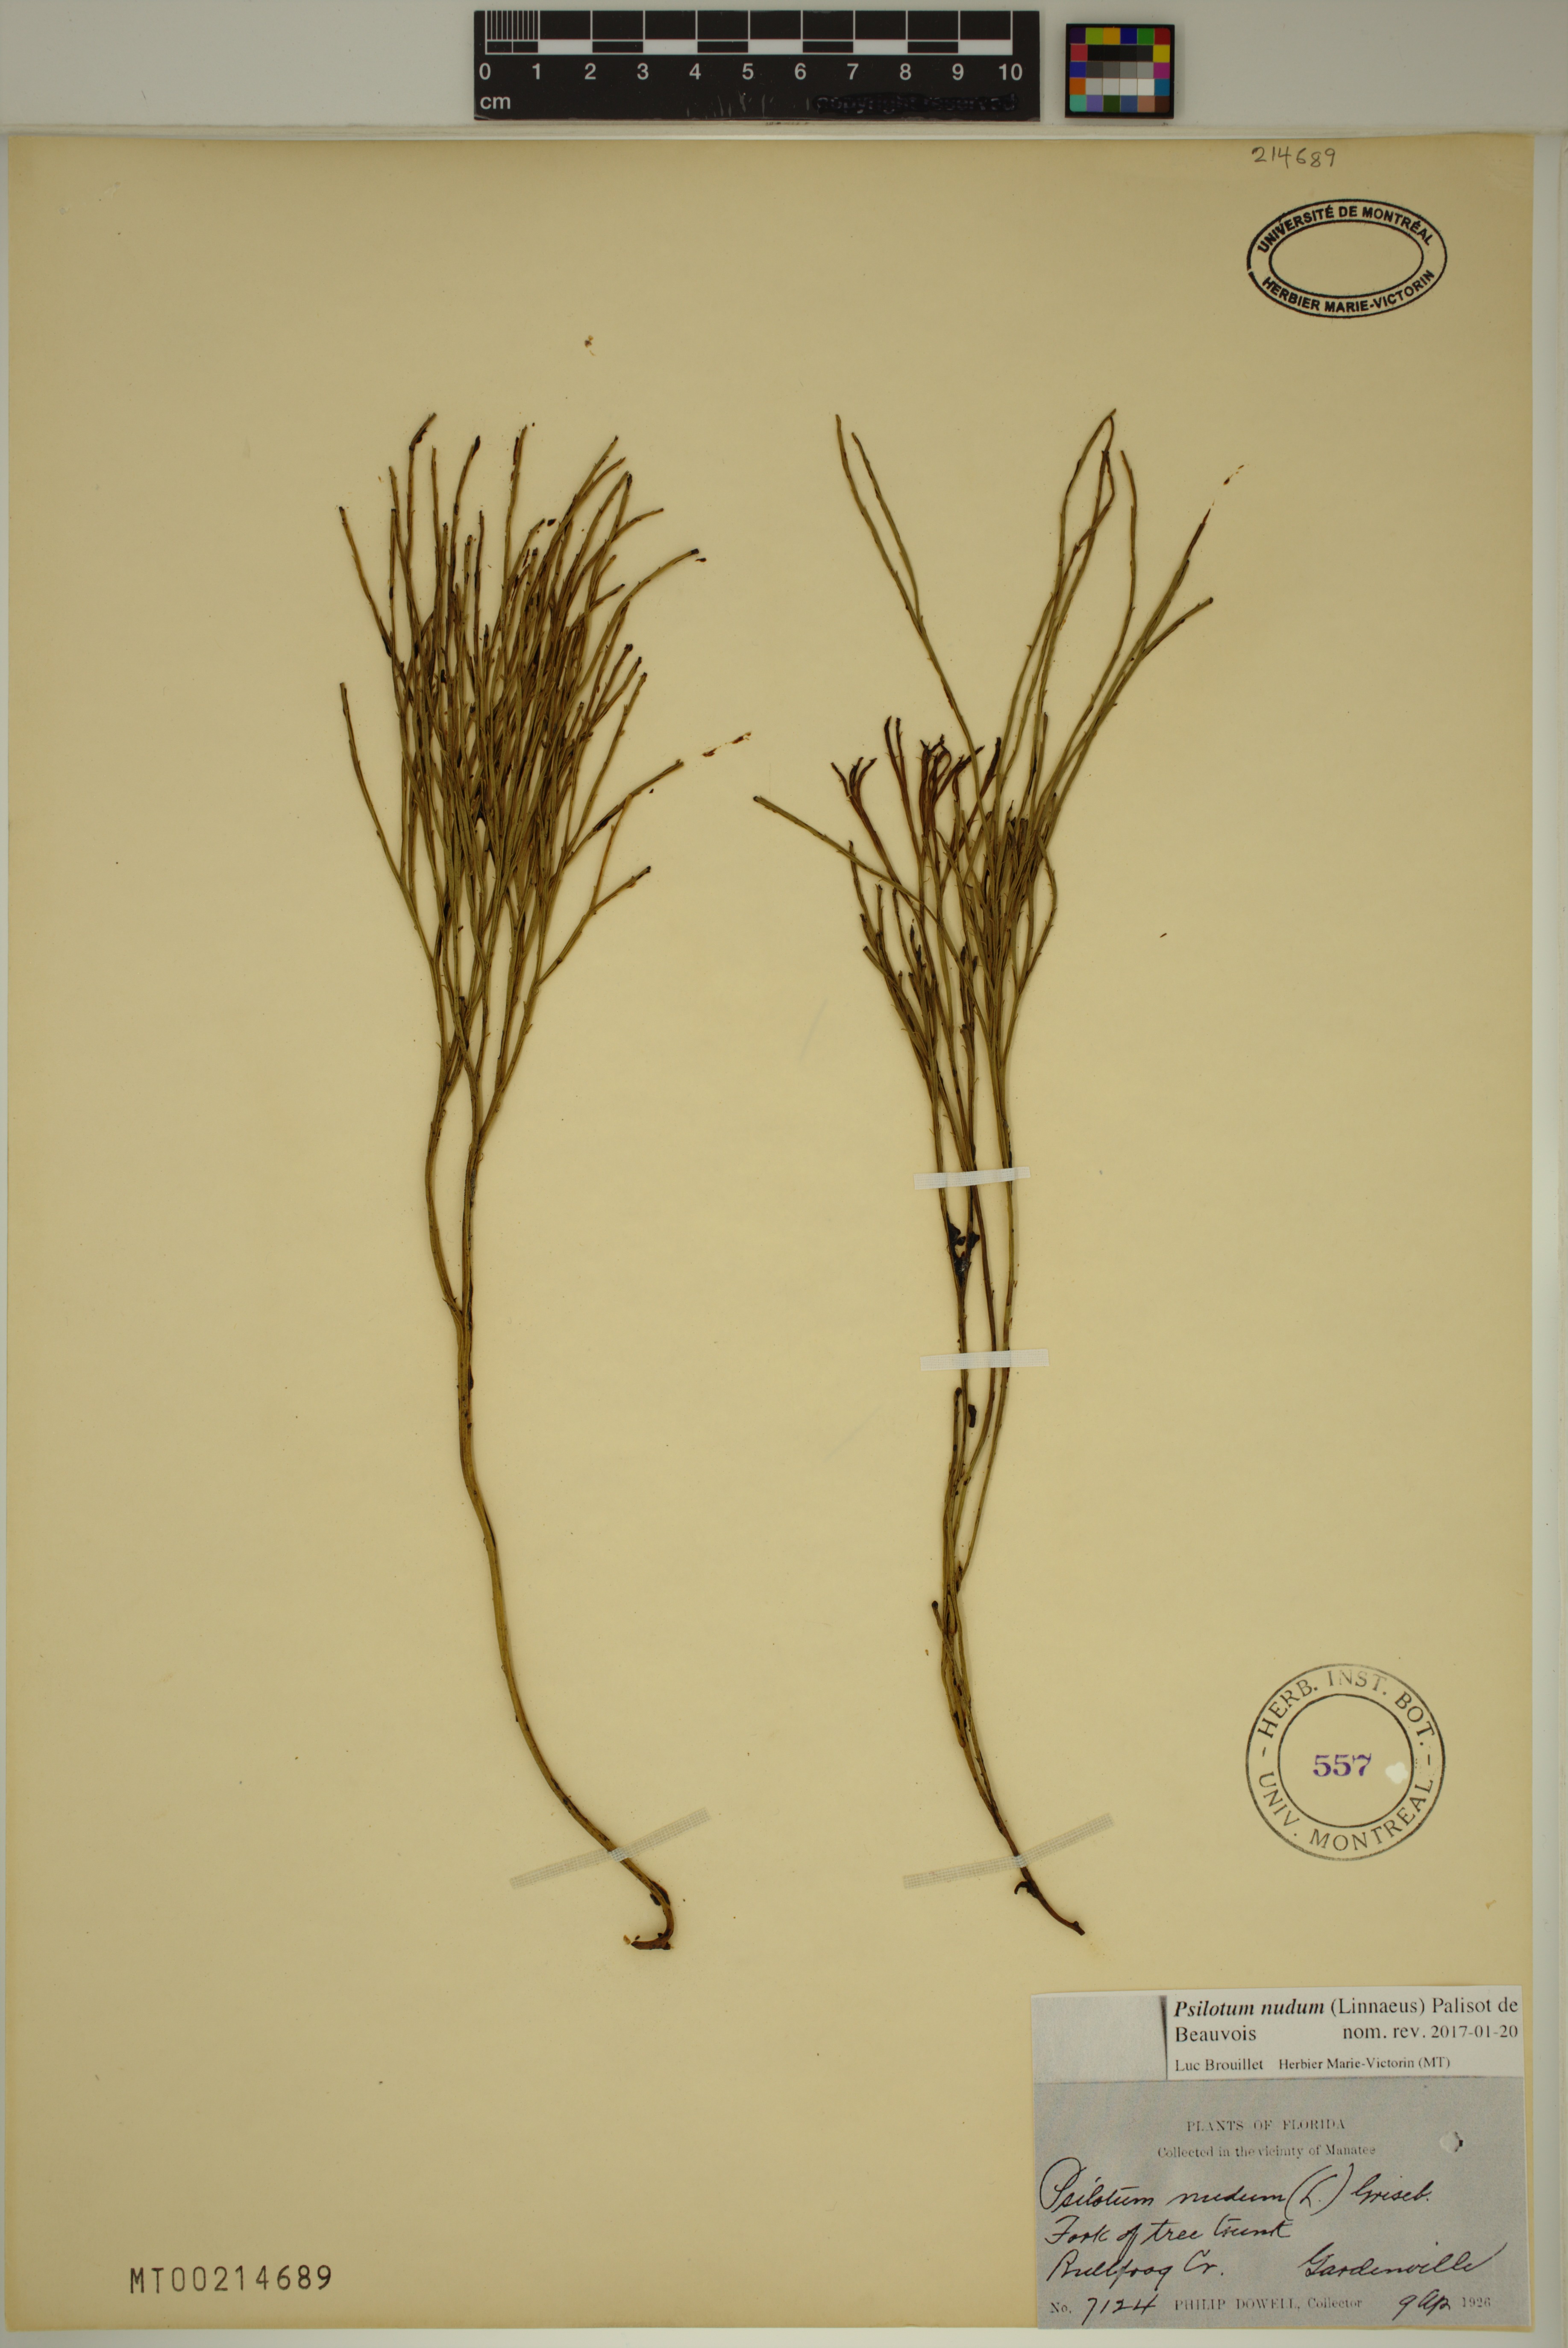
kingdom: Plantae
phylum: Tracheophyta
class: Polypodiopsida
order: Psilotales
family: Psilotaceae
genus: Psilotum
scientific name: Psilotum nudum
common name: Skeleton fork fern
